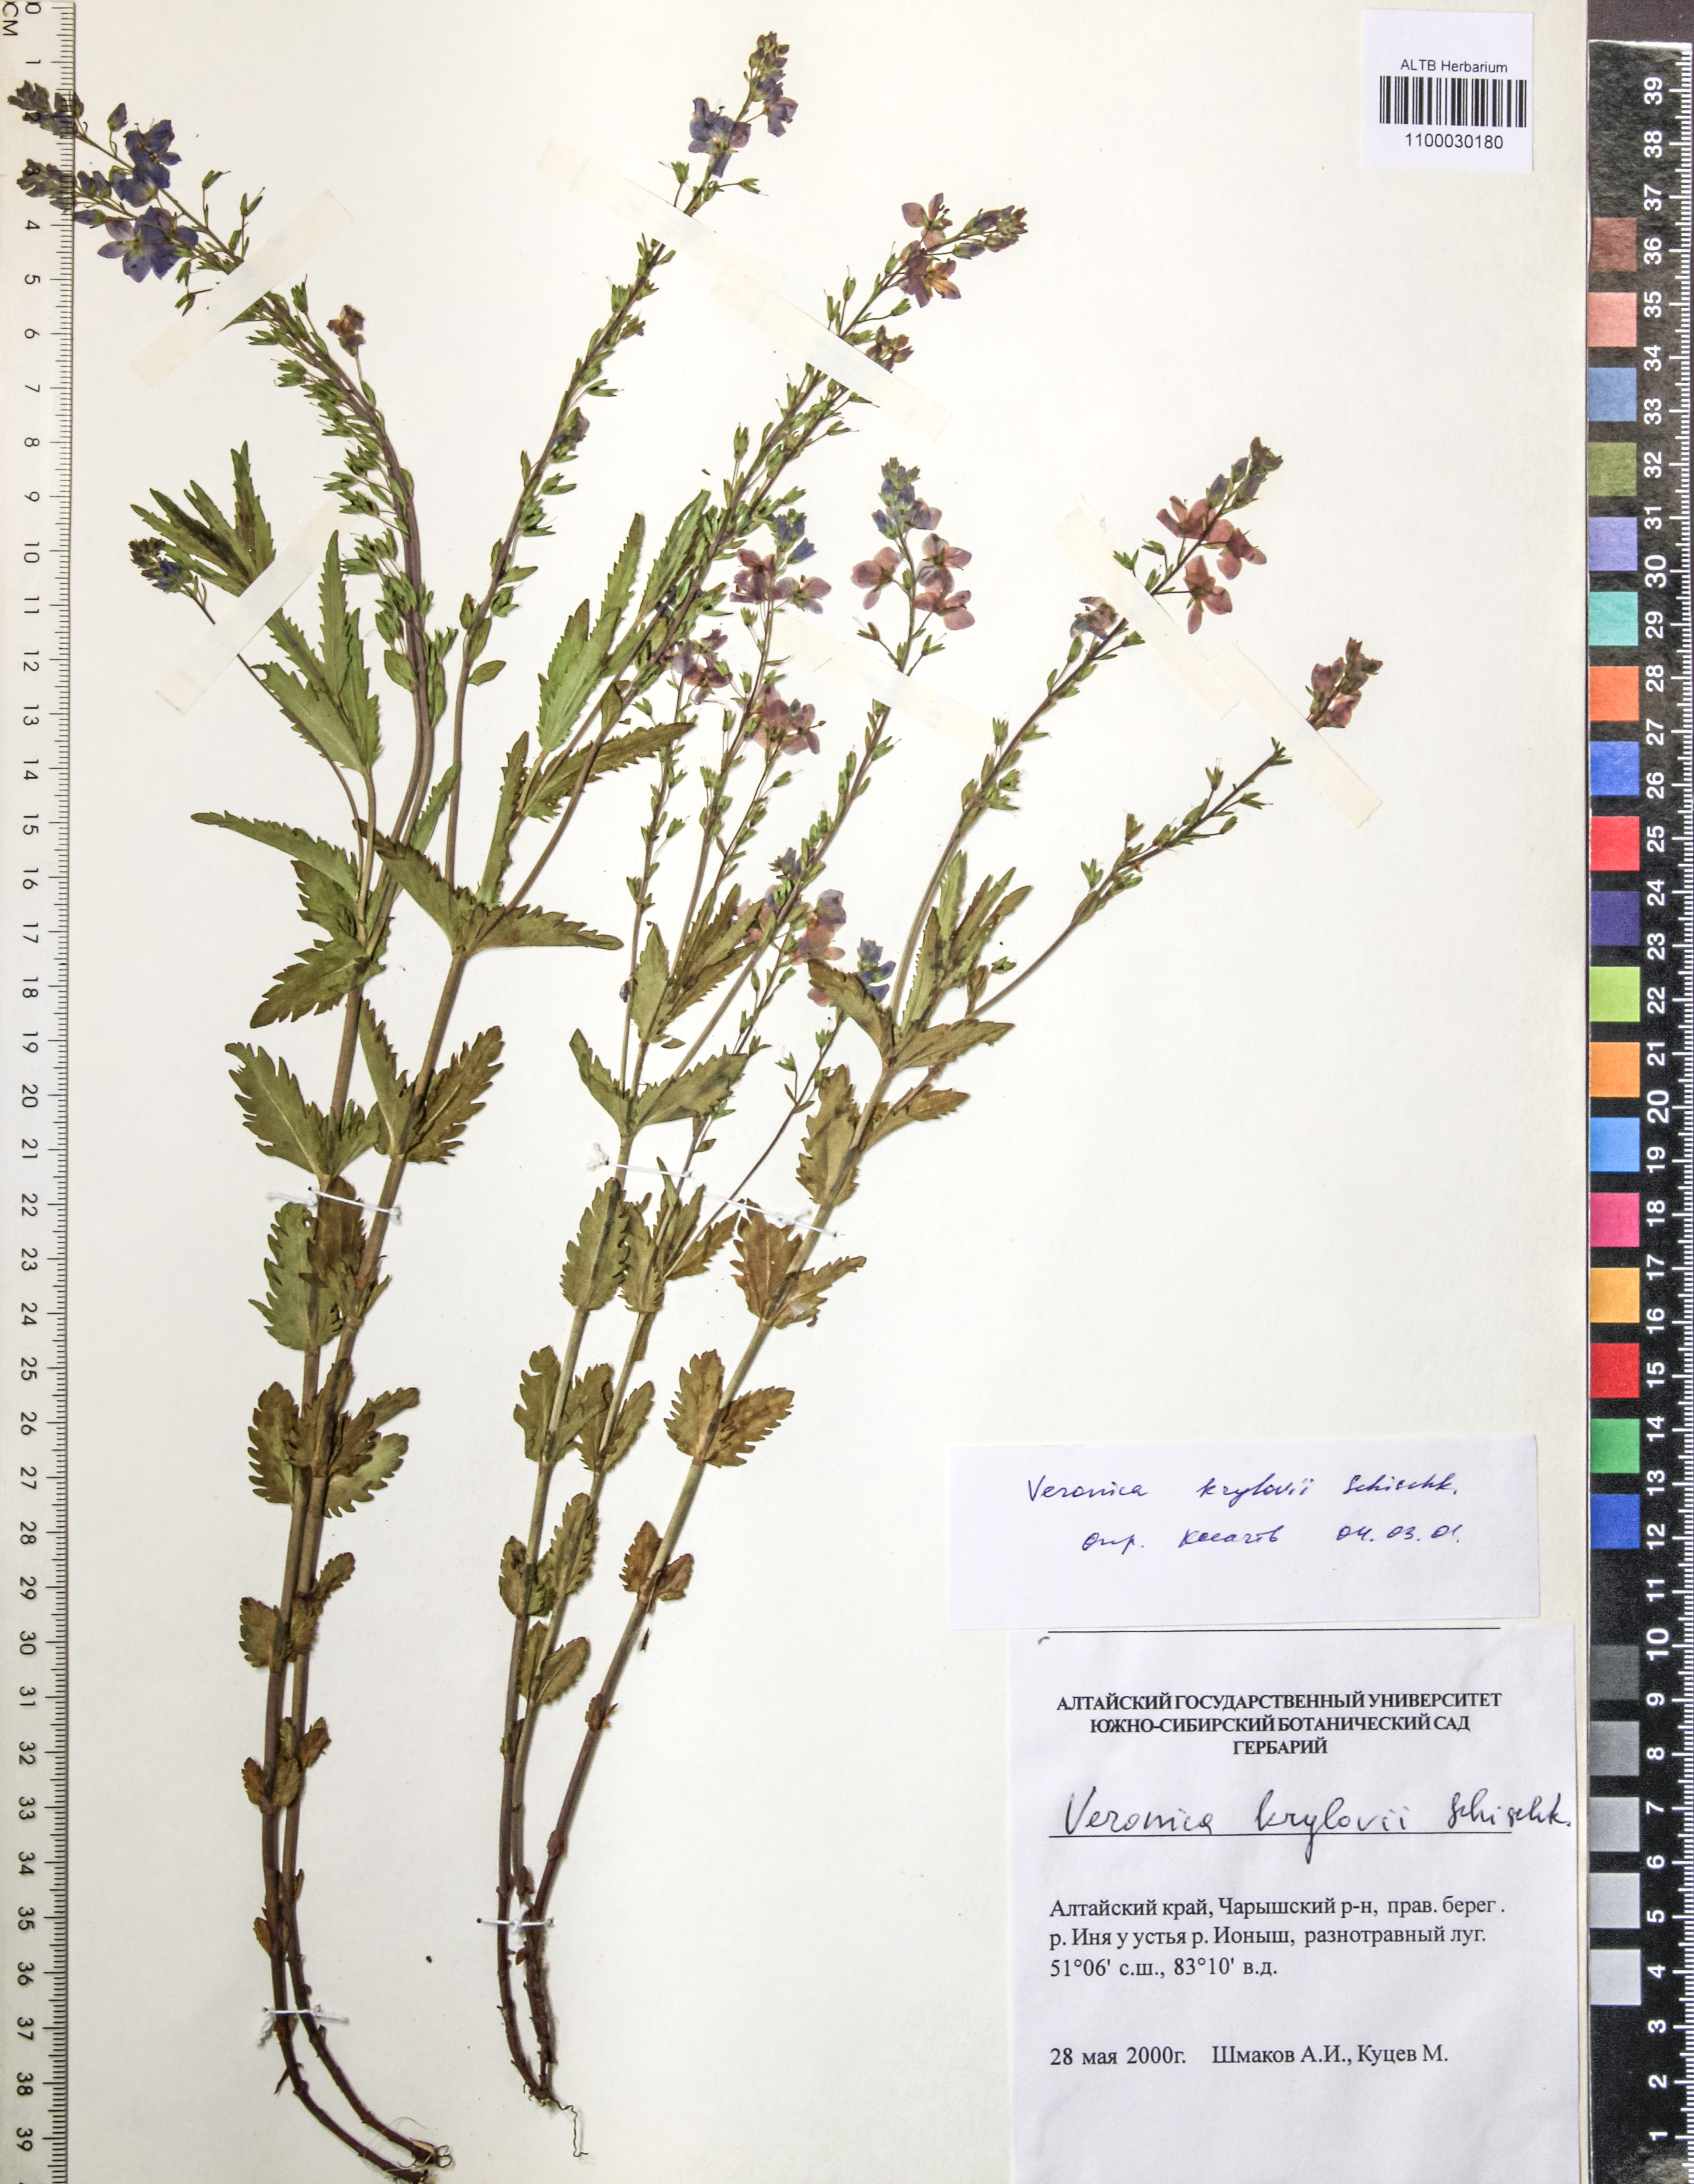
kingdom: Plantae
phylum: Tracheophyta
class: Magnoliopsida
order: Lamiales
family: Plantaginaceae
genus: Veronica
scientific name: Veronica krylovii
